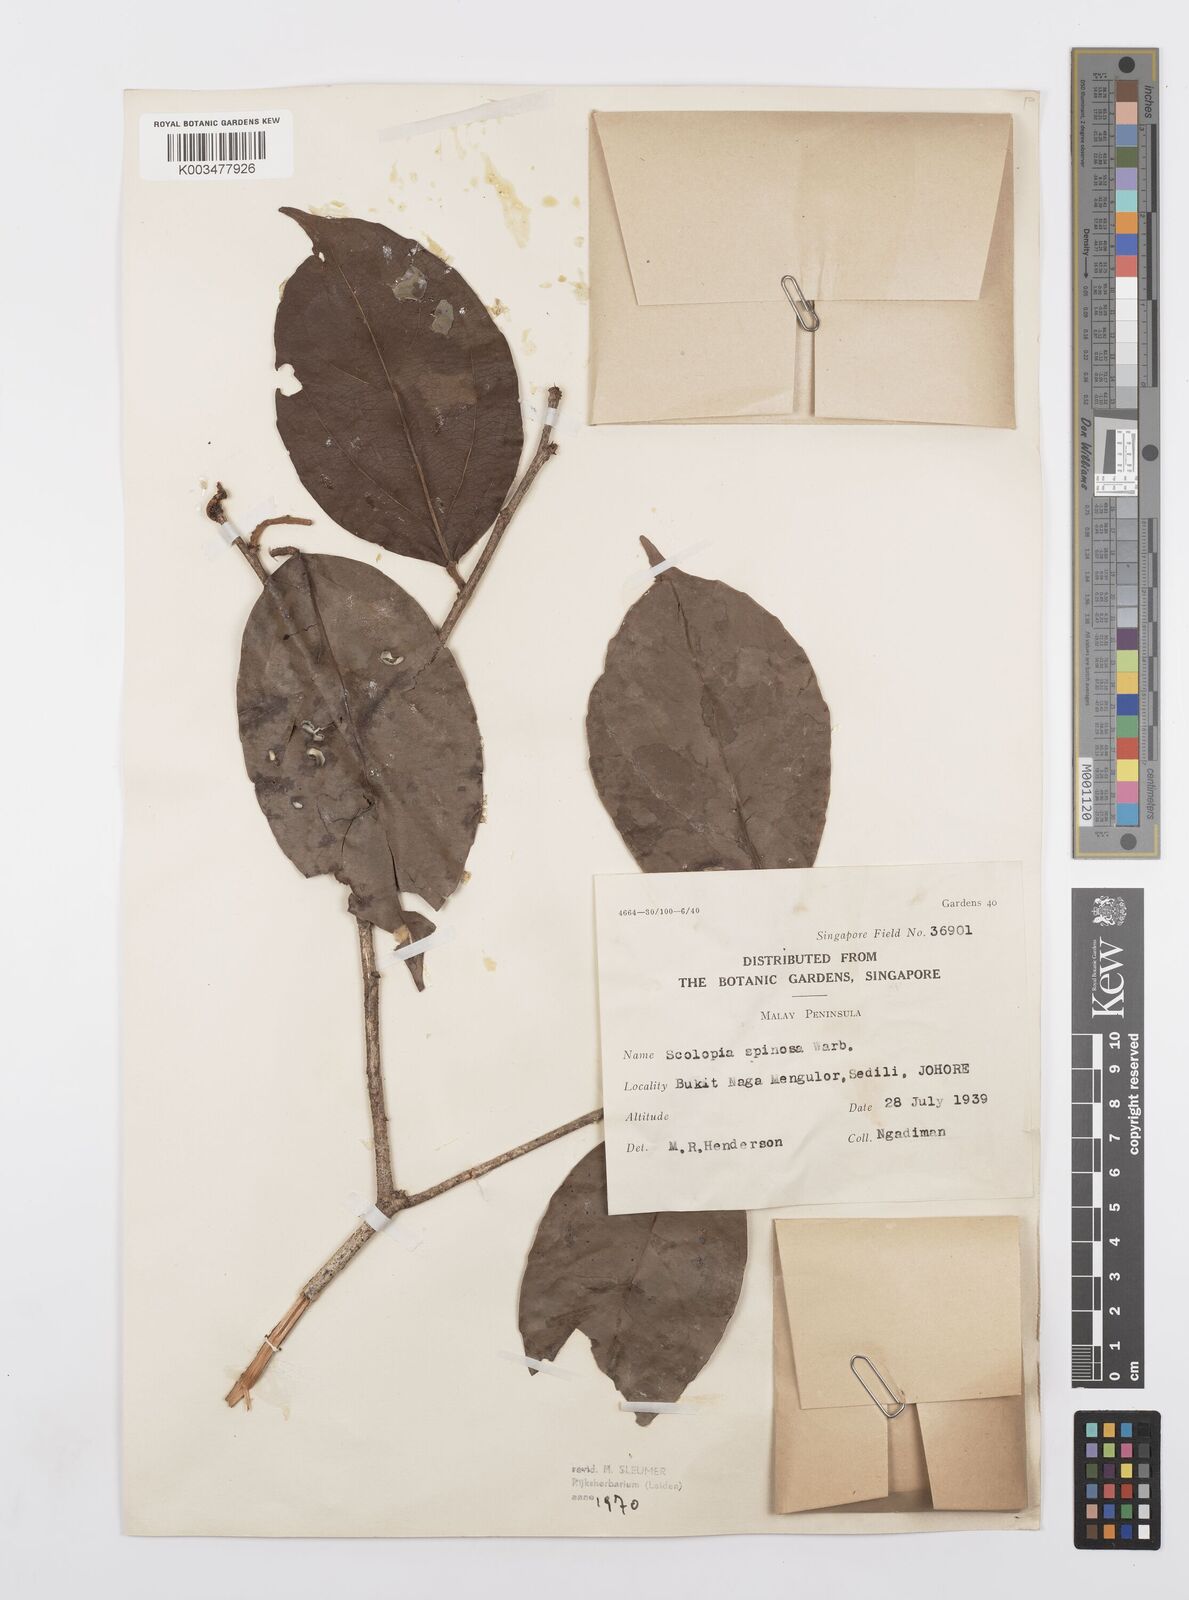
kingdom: Plantae
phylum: Tracheophyta
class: Magnoliopsida
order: Malpighiales
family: Salicaceae
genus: Scolopia
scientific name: Scolopia spinosa
